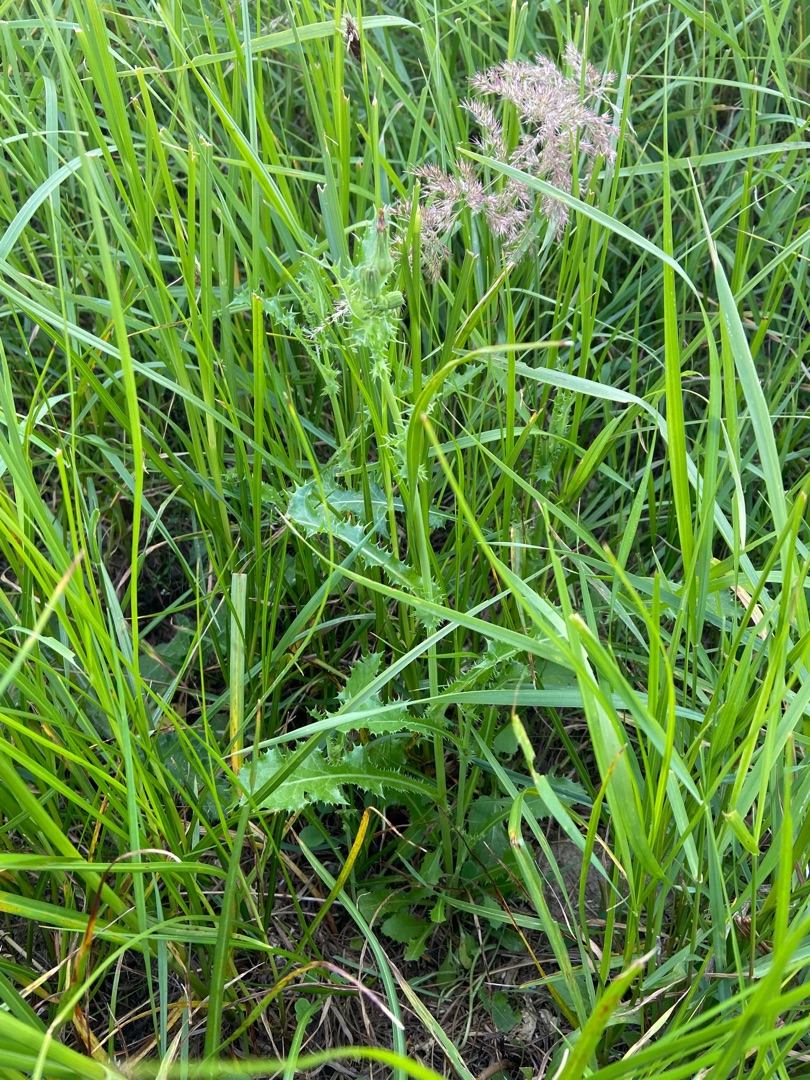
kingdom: Plantae
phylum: Tracheophyta
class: Magnoliopsida
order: Asterales
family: Asteraceae
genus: Sonchus
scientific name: Sonchus asper
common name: Ru svinemælk
